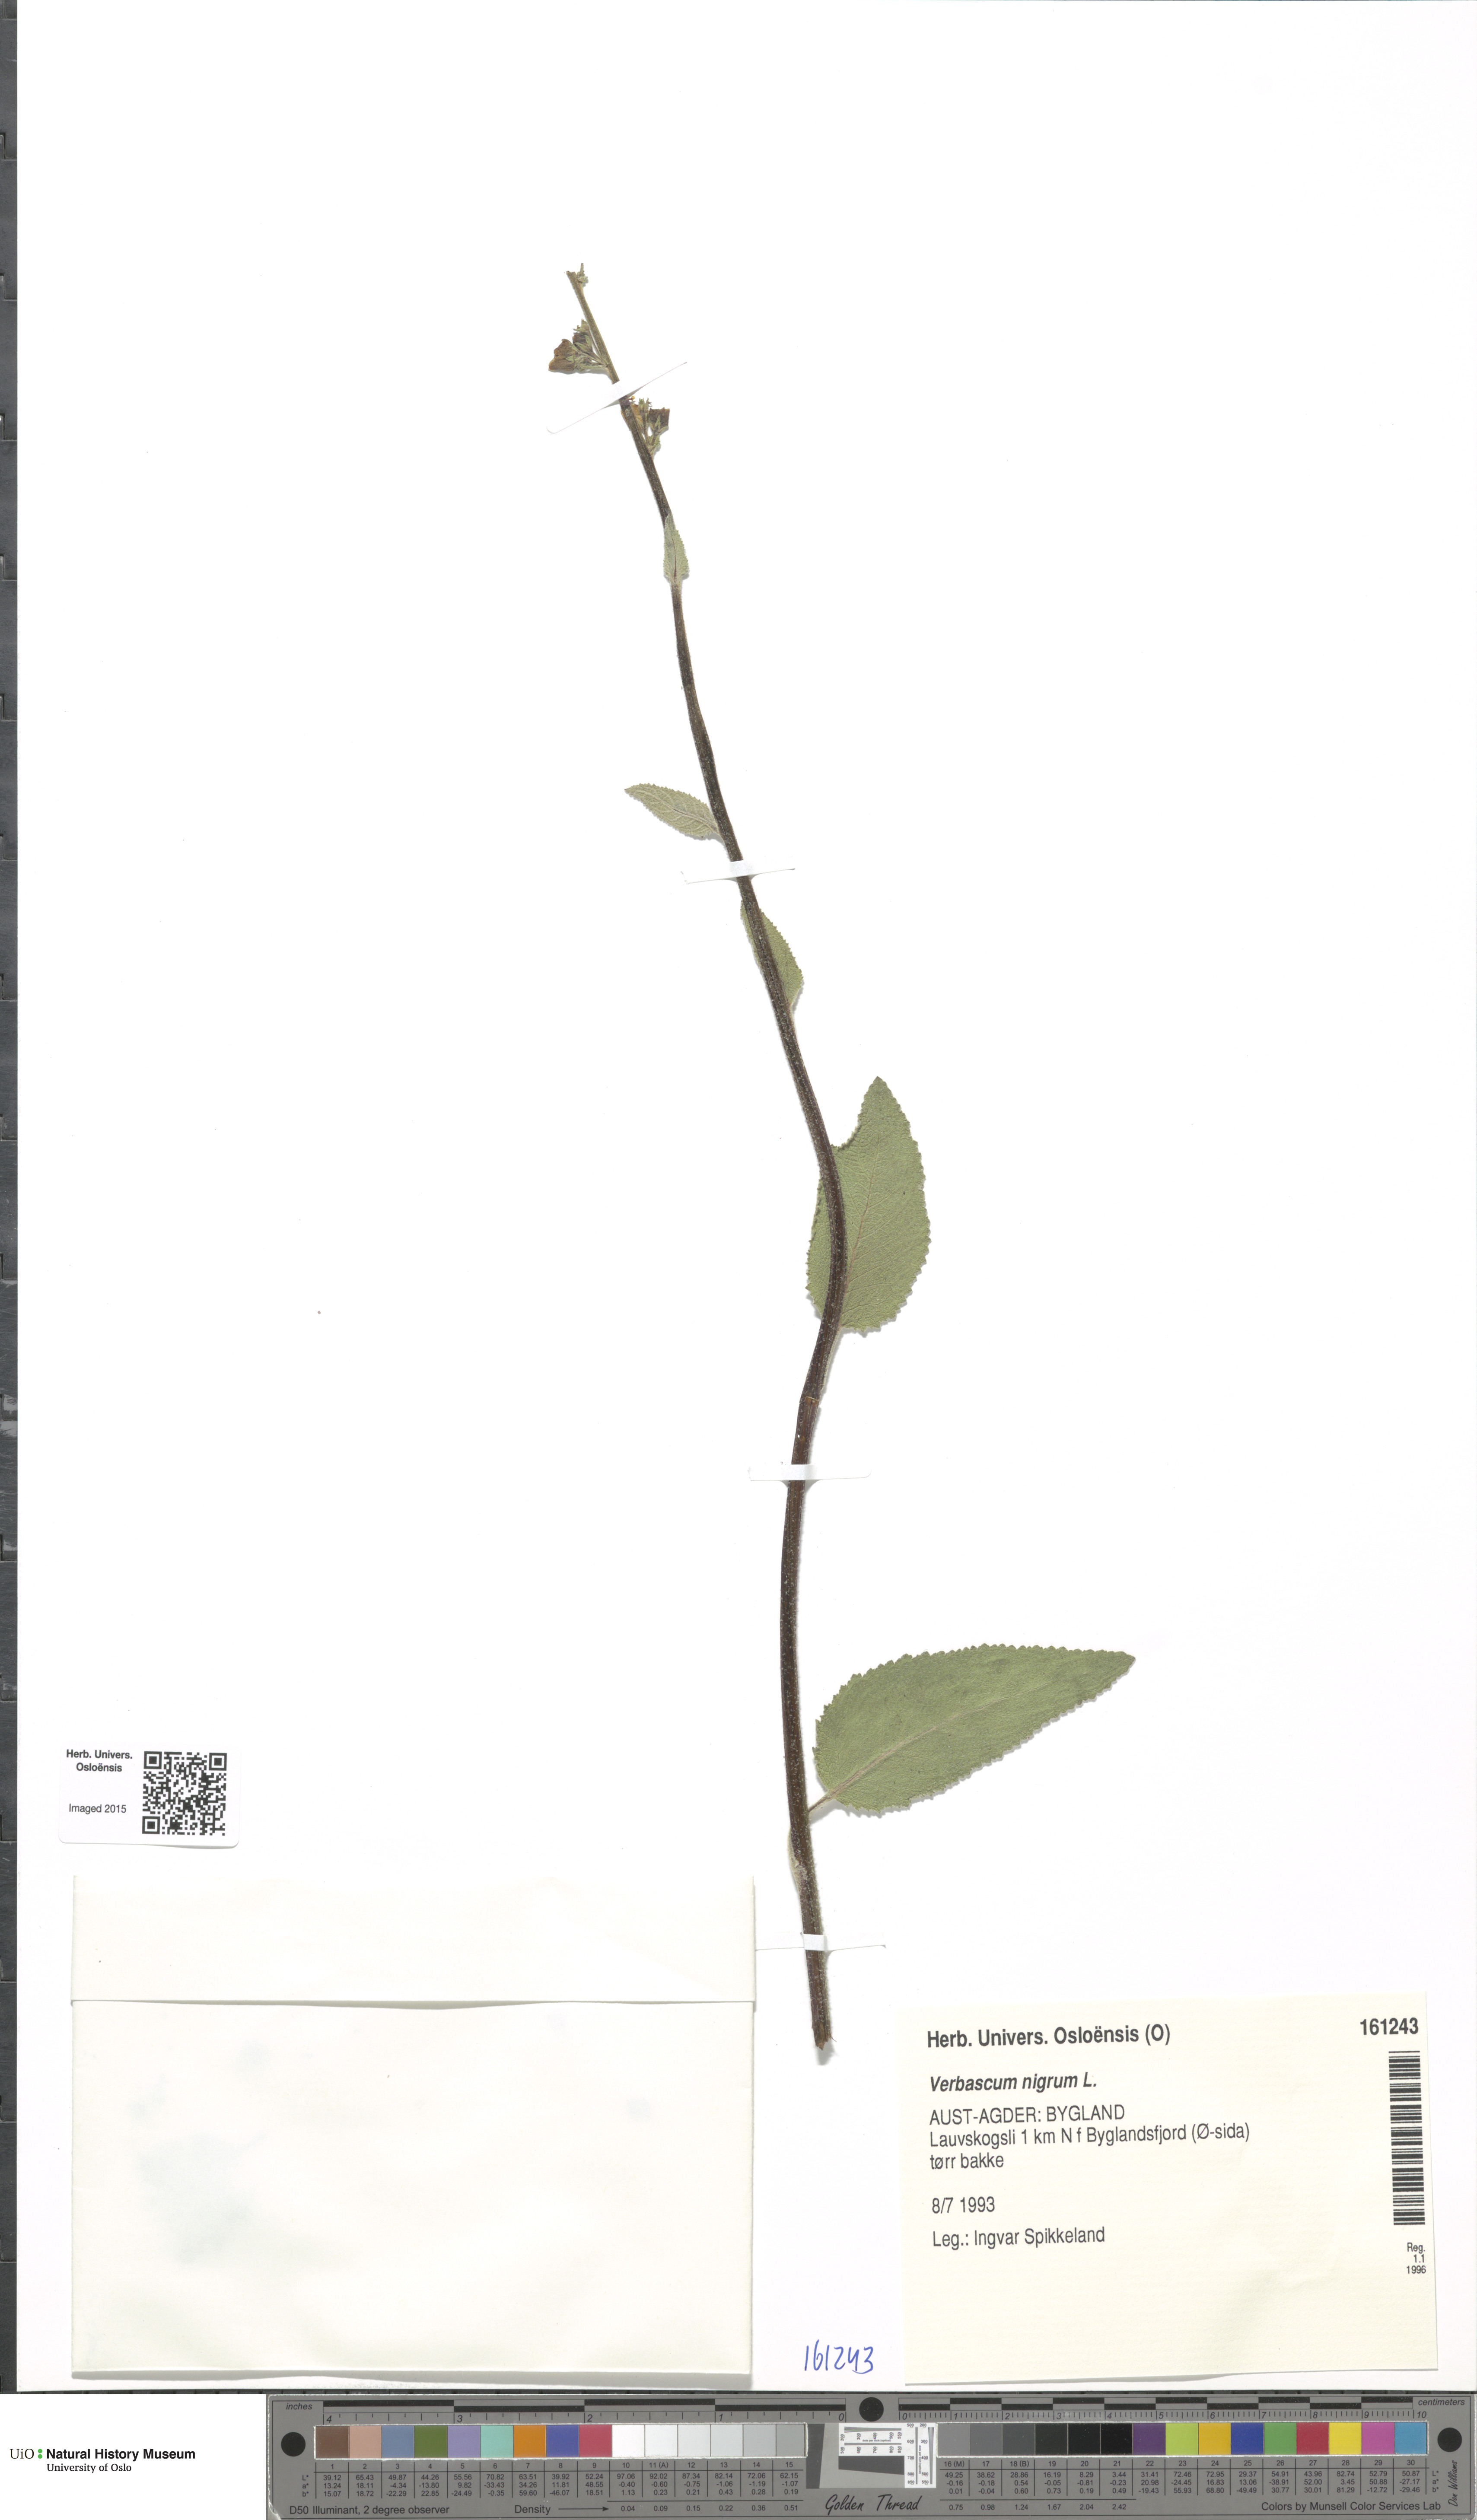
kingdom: Plantae
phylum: Tracheophyta
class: Magnoliopsida
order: Lamiales
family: Scrophulariaceae
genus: Verbascum
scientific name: Verbascum nigrum
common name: Dark mullein
